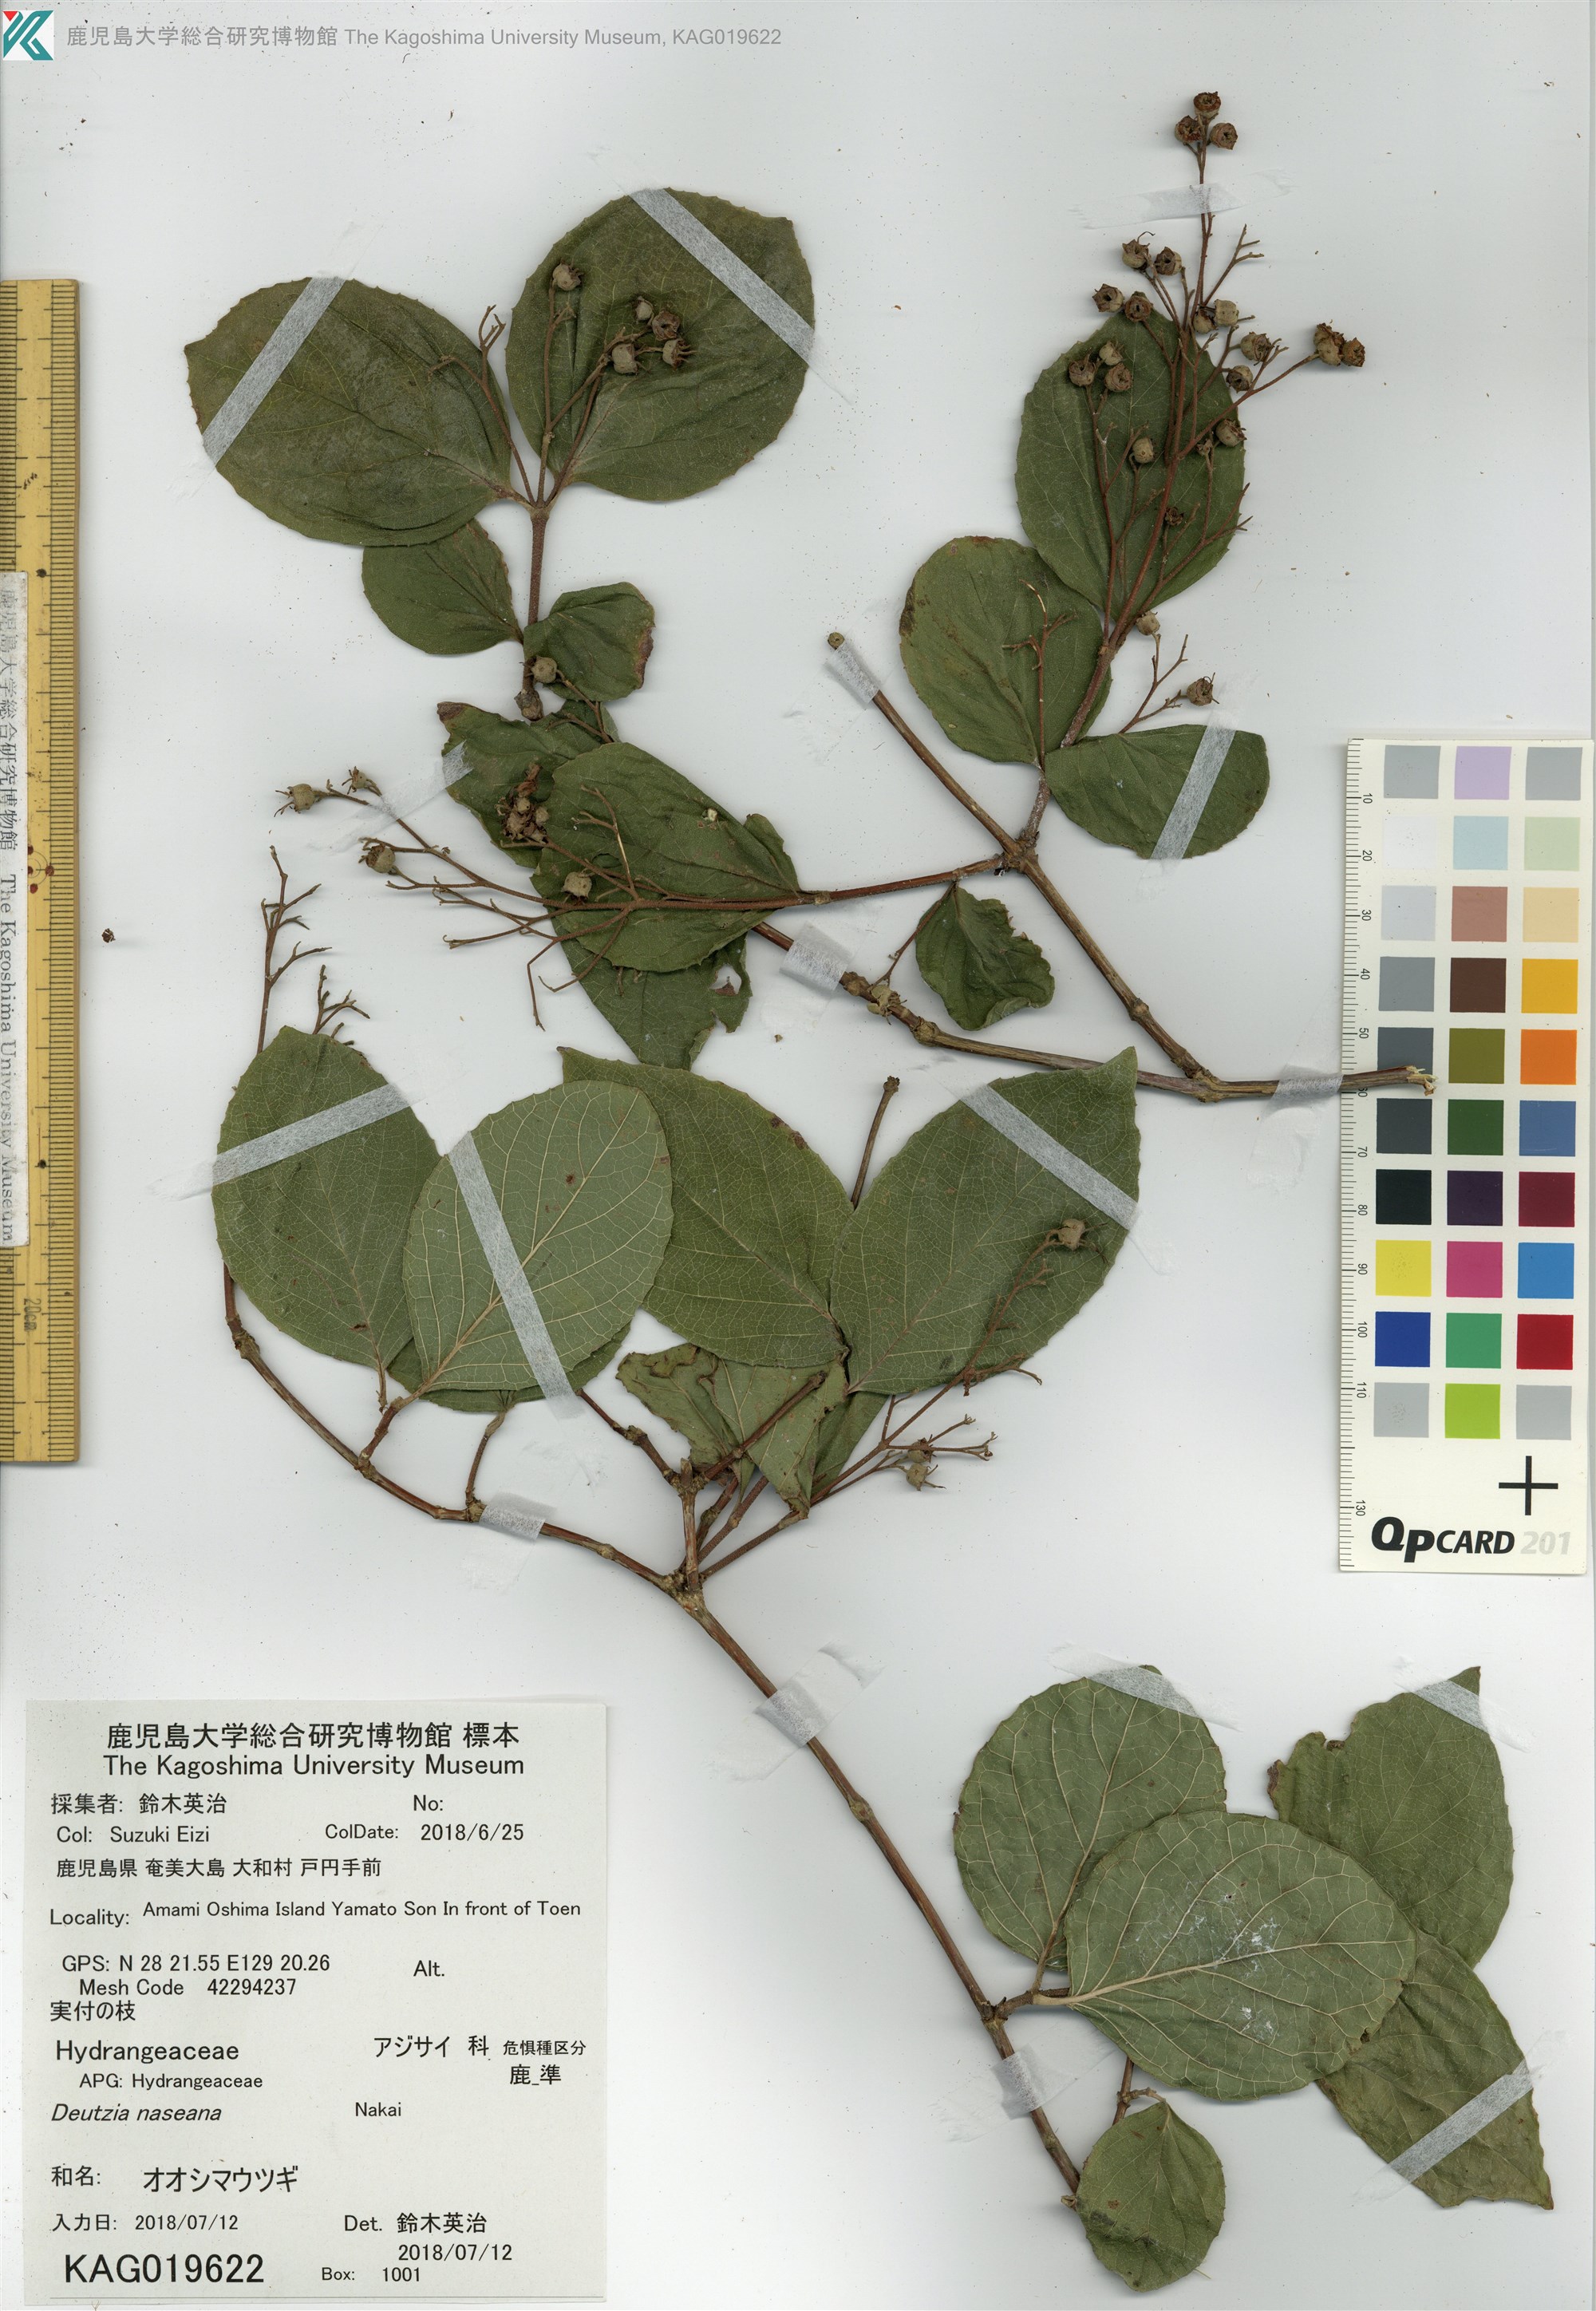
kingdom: Plantae
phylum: Tracheophyta
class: Magnoliopsida
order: Cornales
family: Hydrangeaceae
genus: Deutzia
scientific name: Deutzia naseana
